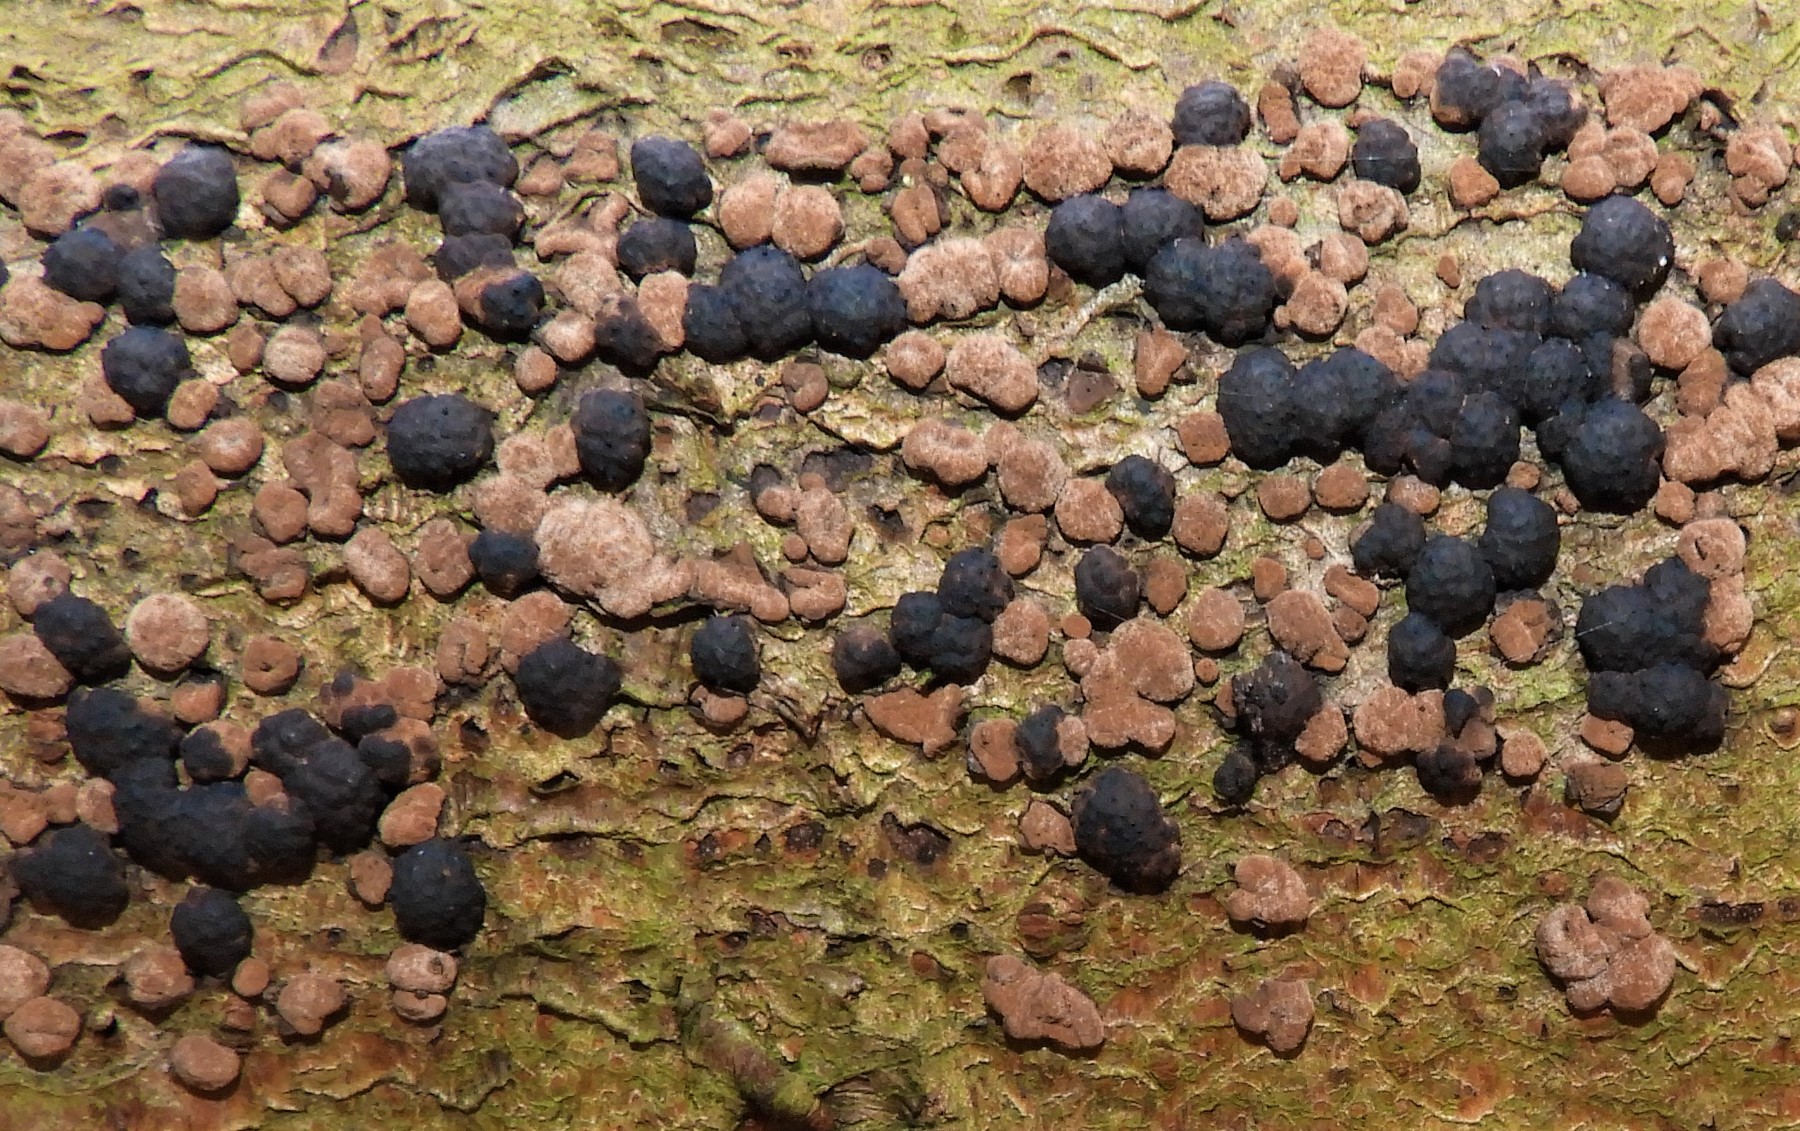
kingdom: Fungi
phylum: Ascomycota
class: Sordariomycetes
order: Xylariales
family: Hypoxylaceae
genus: Jackrogersella
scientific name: Jackrogersella cohaerens
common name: sammenflydende kulbær
